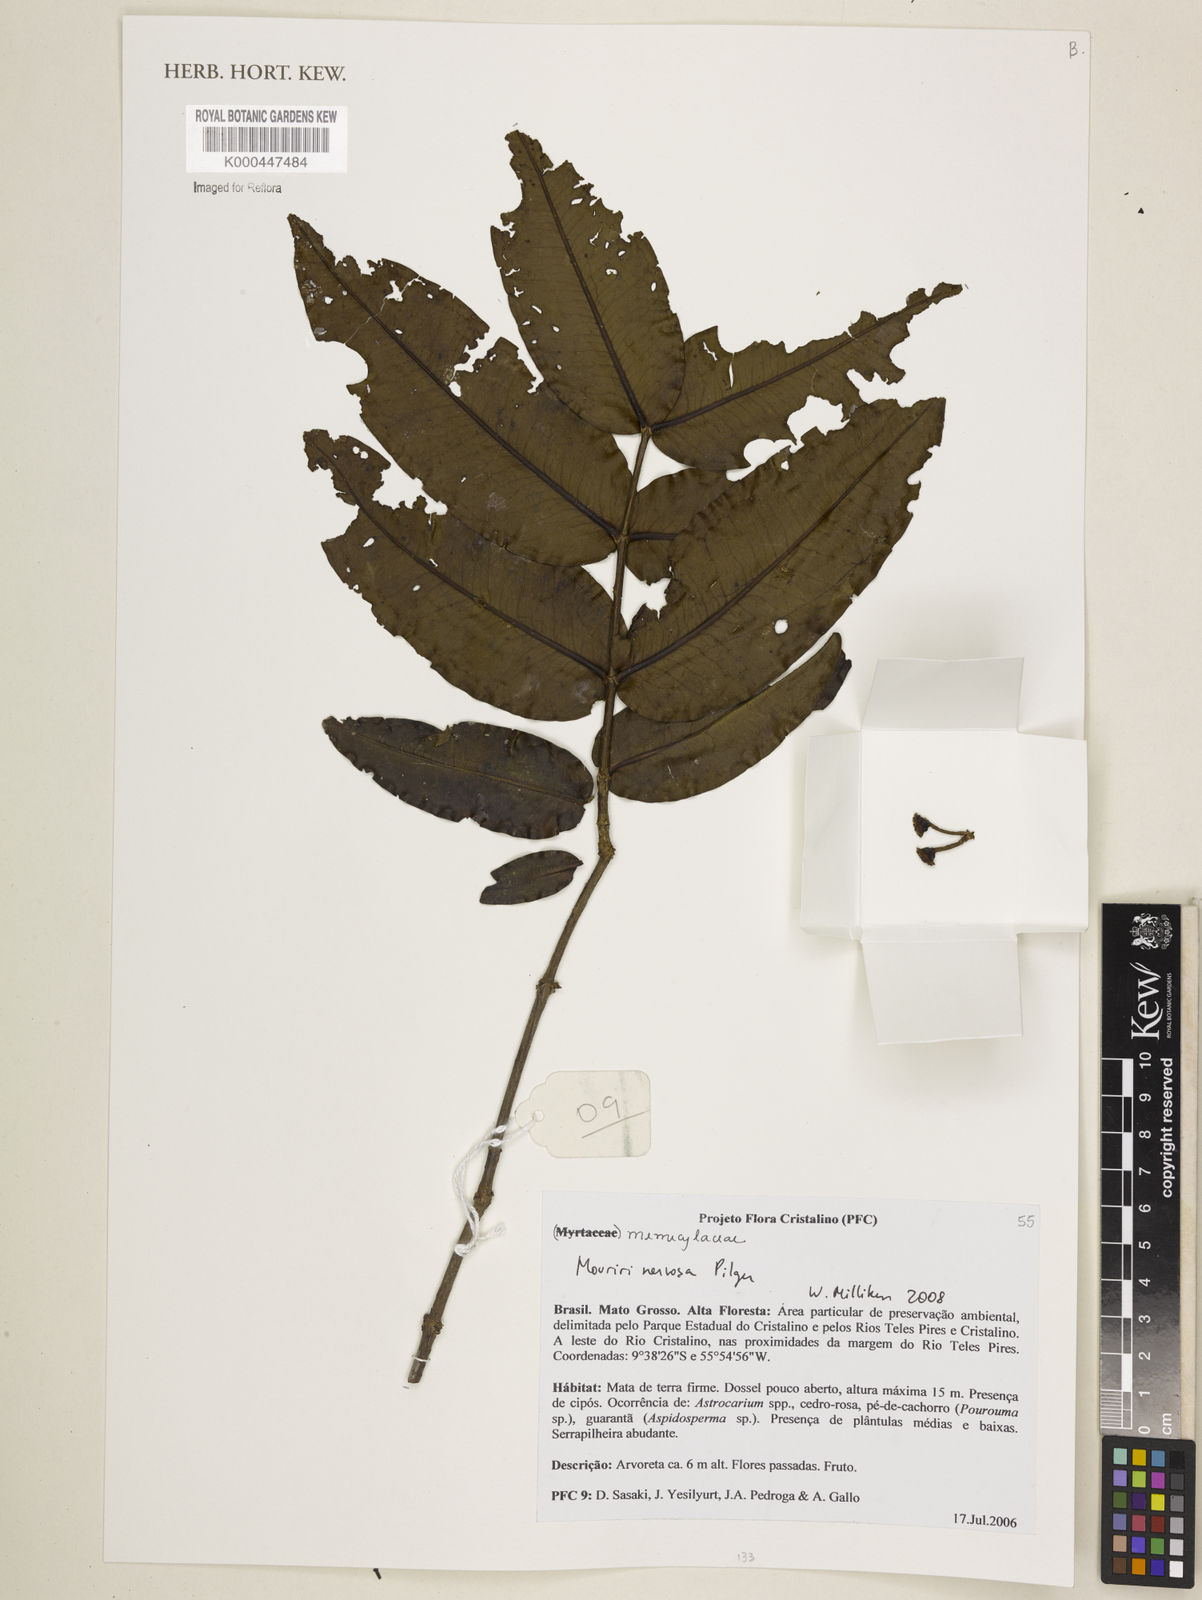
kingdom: Plantae
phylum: Tracheophyta
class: Magnoliopsida
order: Myrtales
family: Melastomataceae
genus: Mouriri
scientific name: Mouriri nervosa
